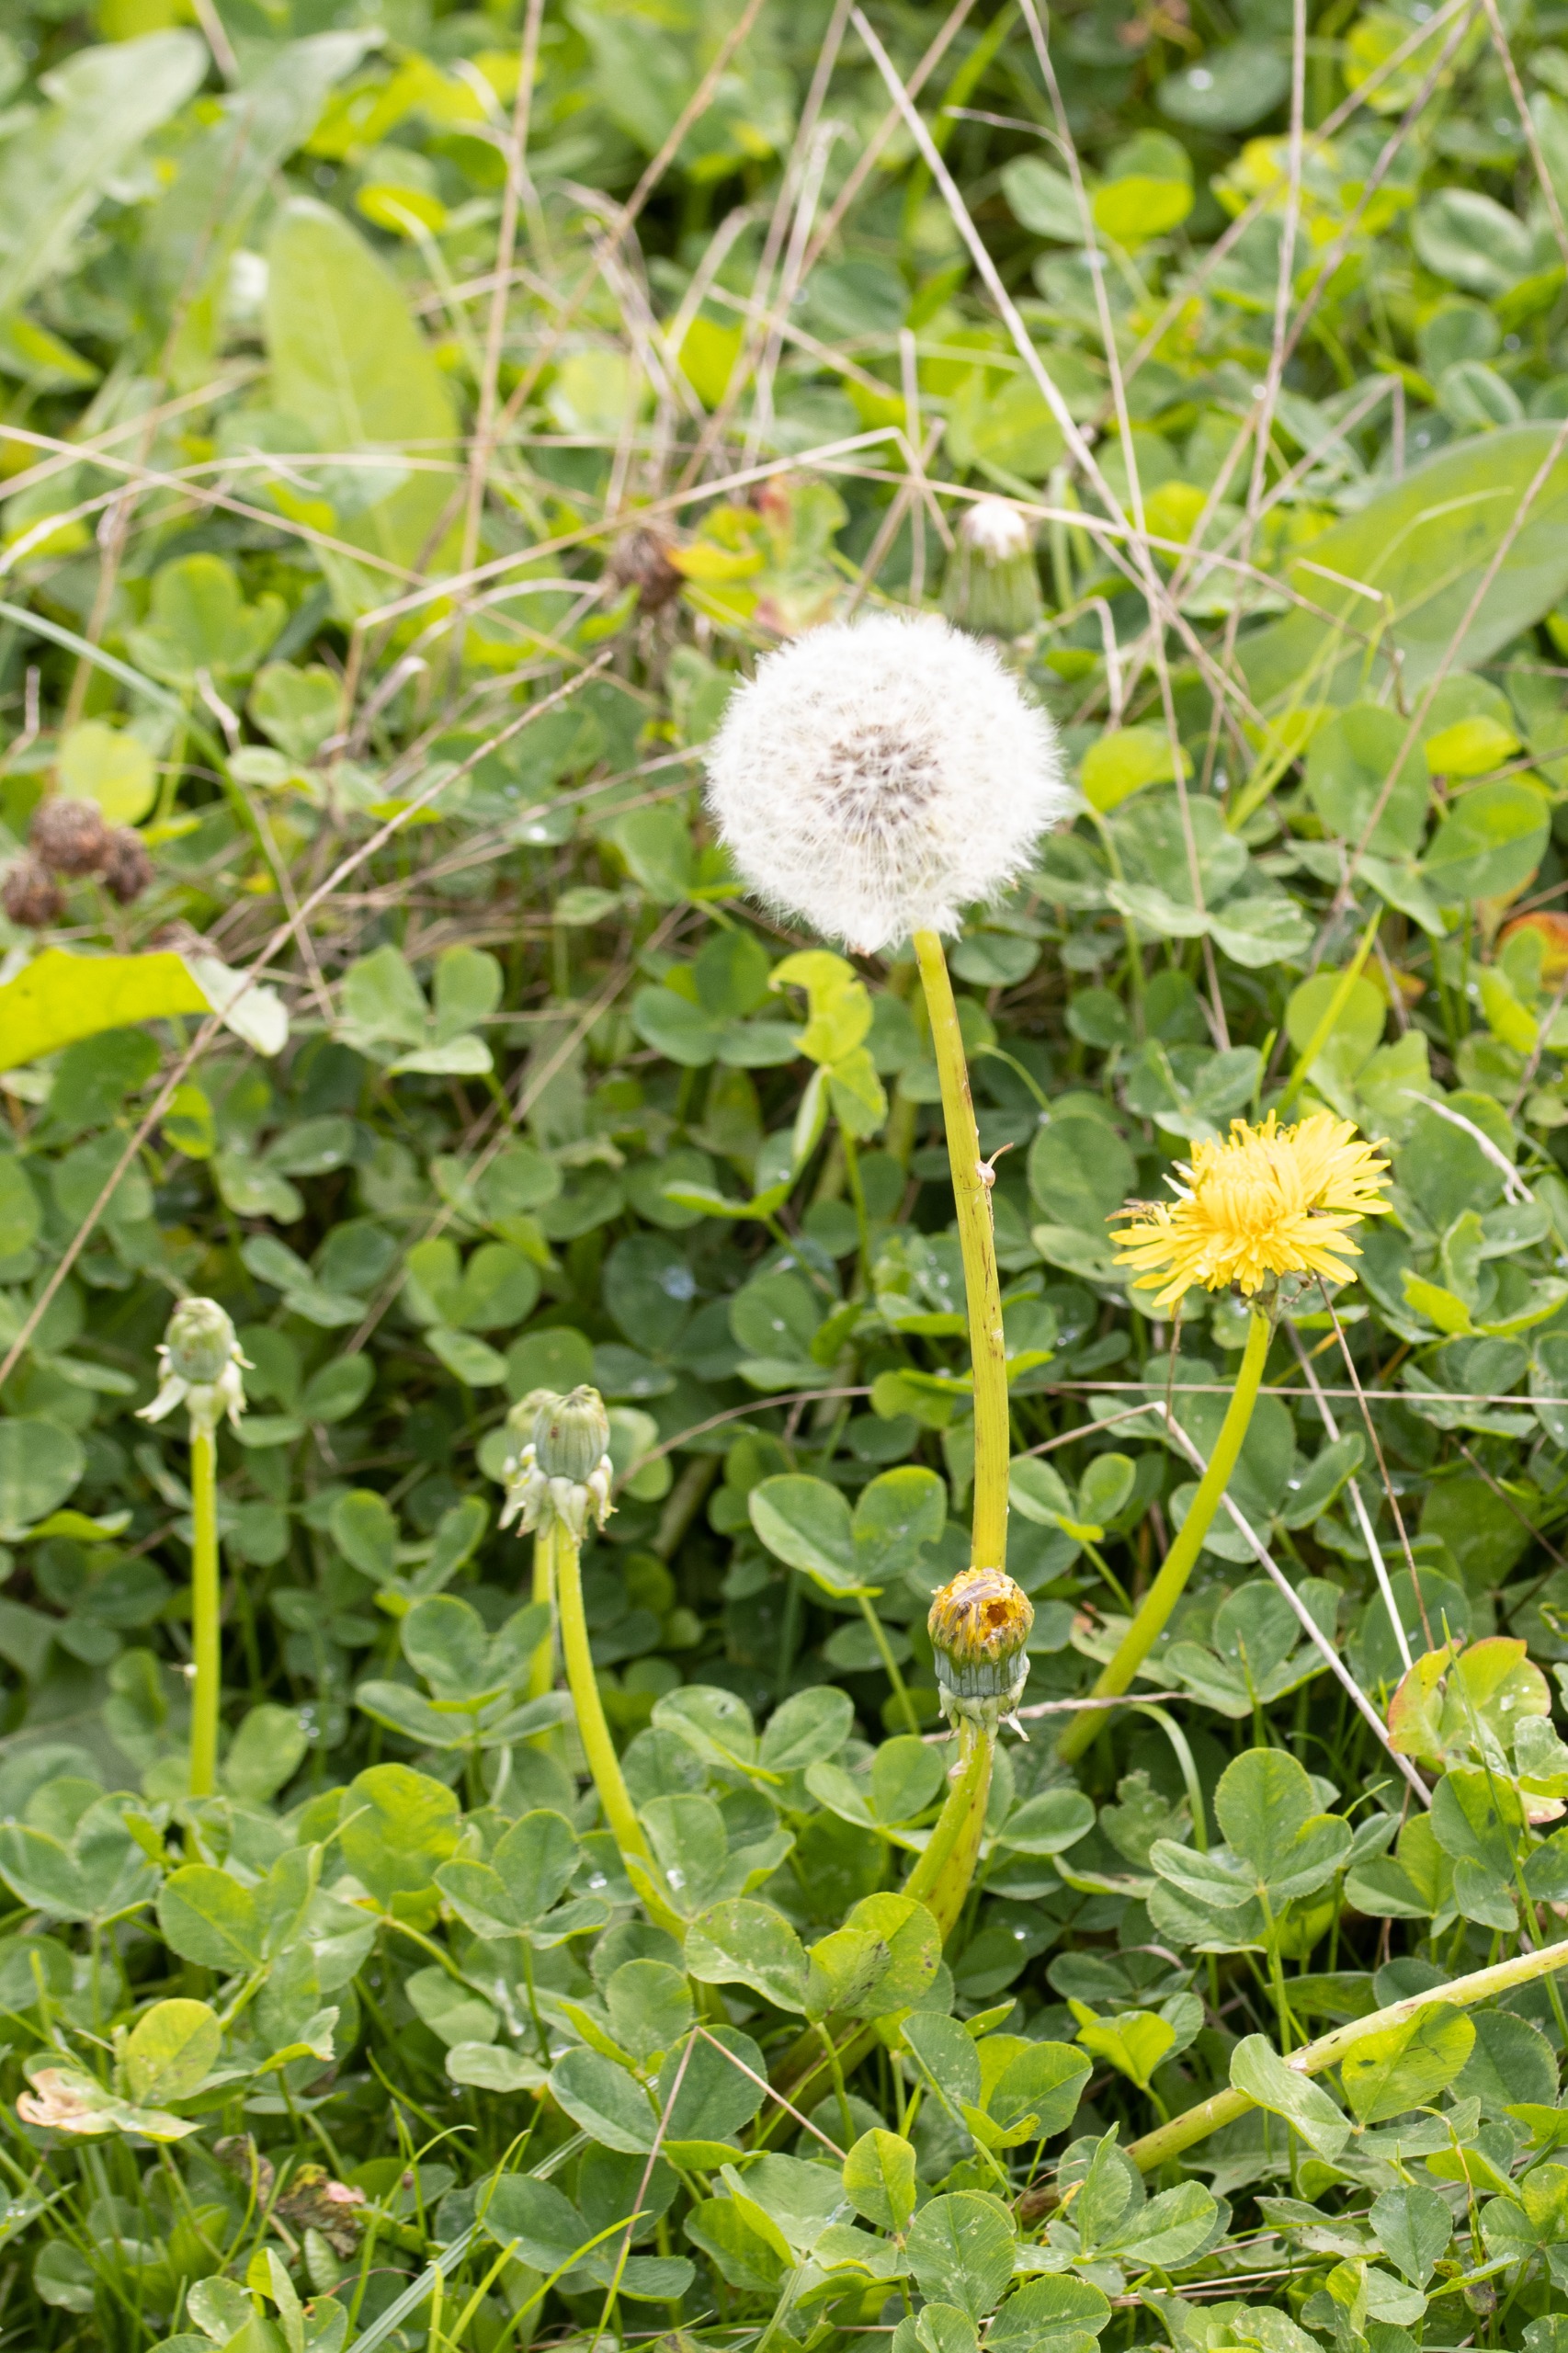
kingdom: Plantae
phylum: Tracheophyta
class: Magnoliopsida
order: Asterales
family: Asteraceae
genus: Taraxacum
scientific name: Taraxacum
